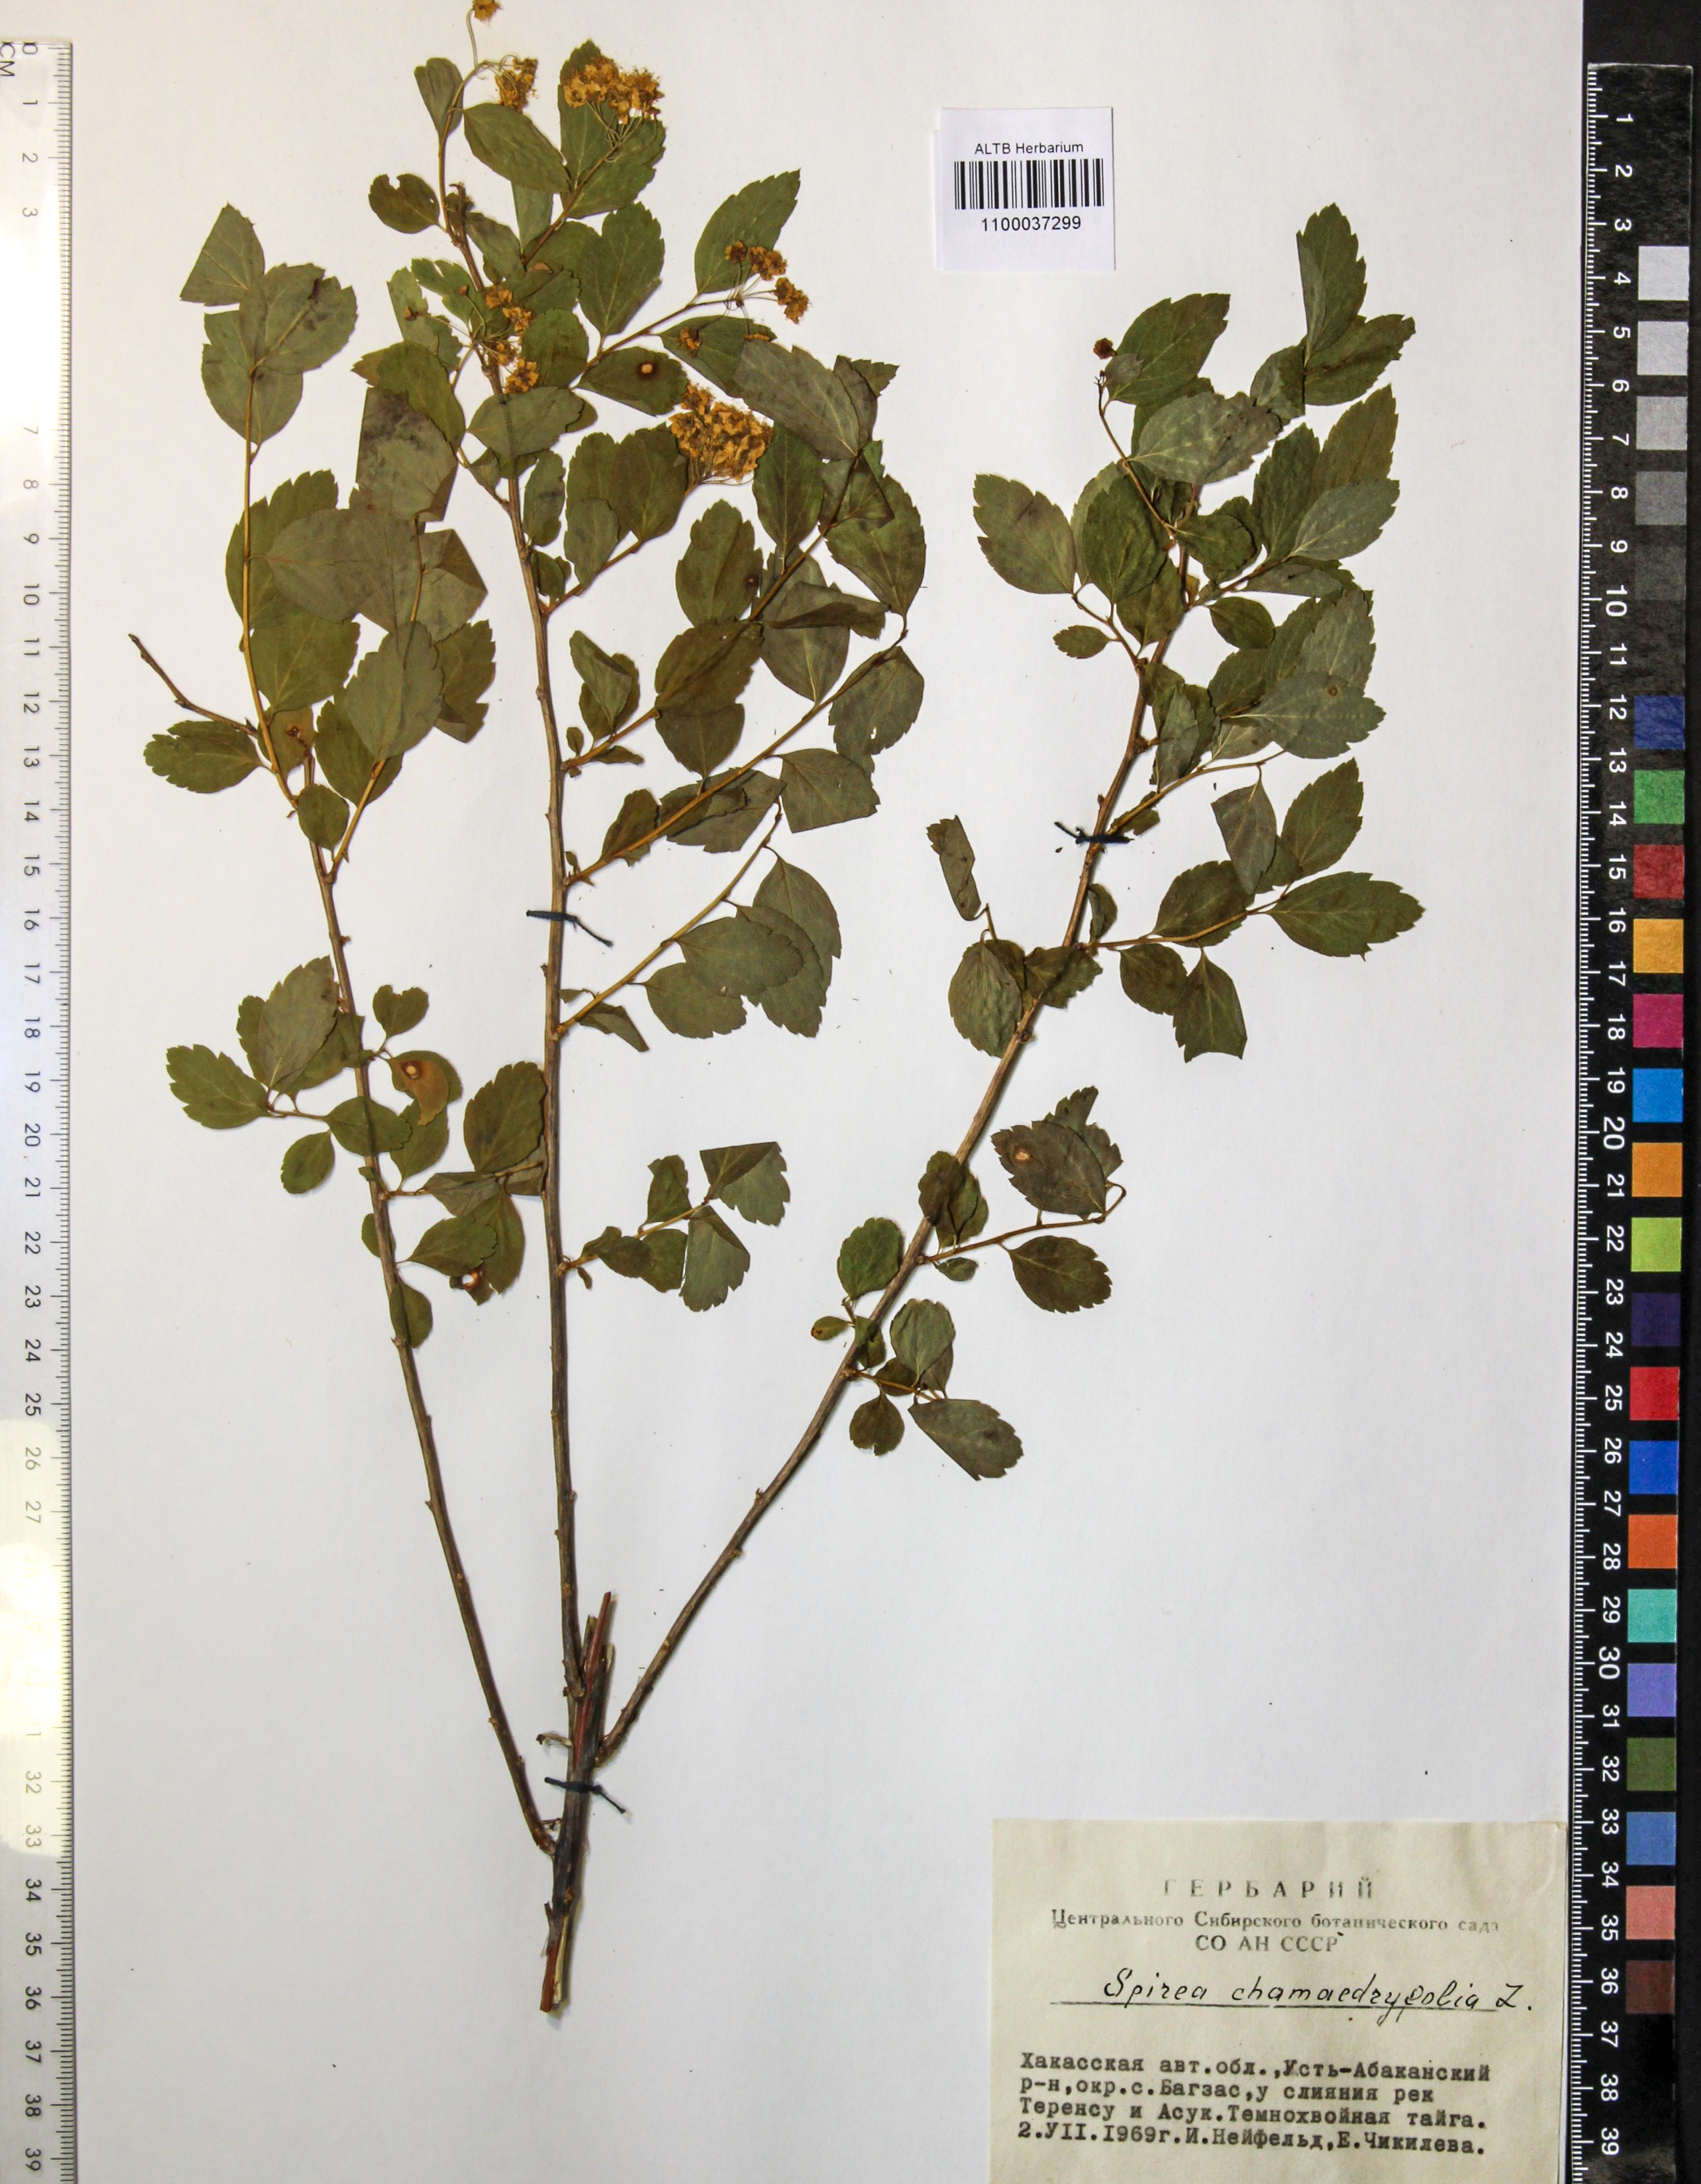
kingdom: Plantae
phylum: Tracheophyta
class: Magnoliopsida
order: Rosales
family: Rosaceae
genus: Spiraea
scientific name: Spiraea chamaedryfolia
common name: Elm-leaved spiraea
